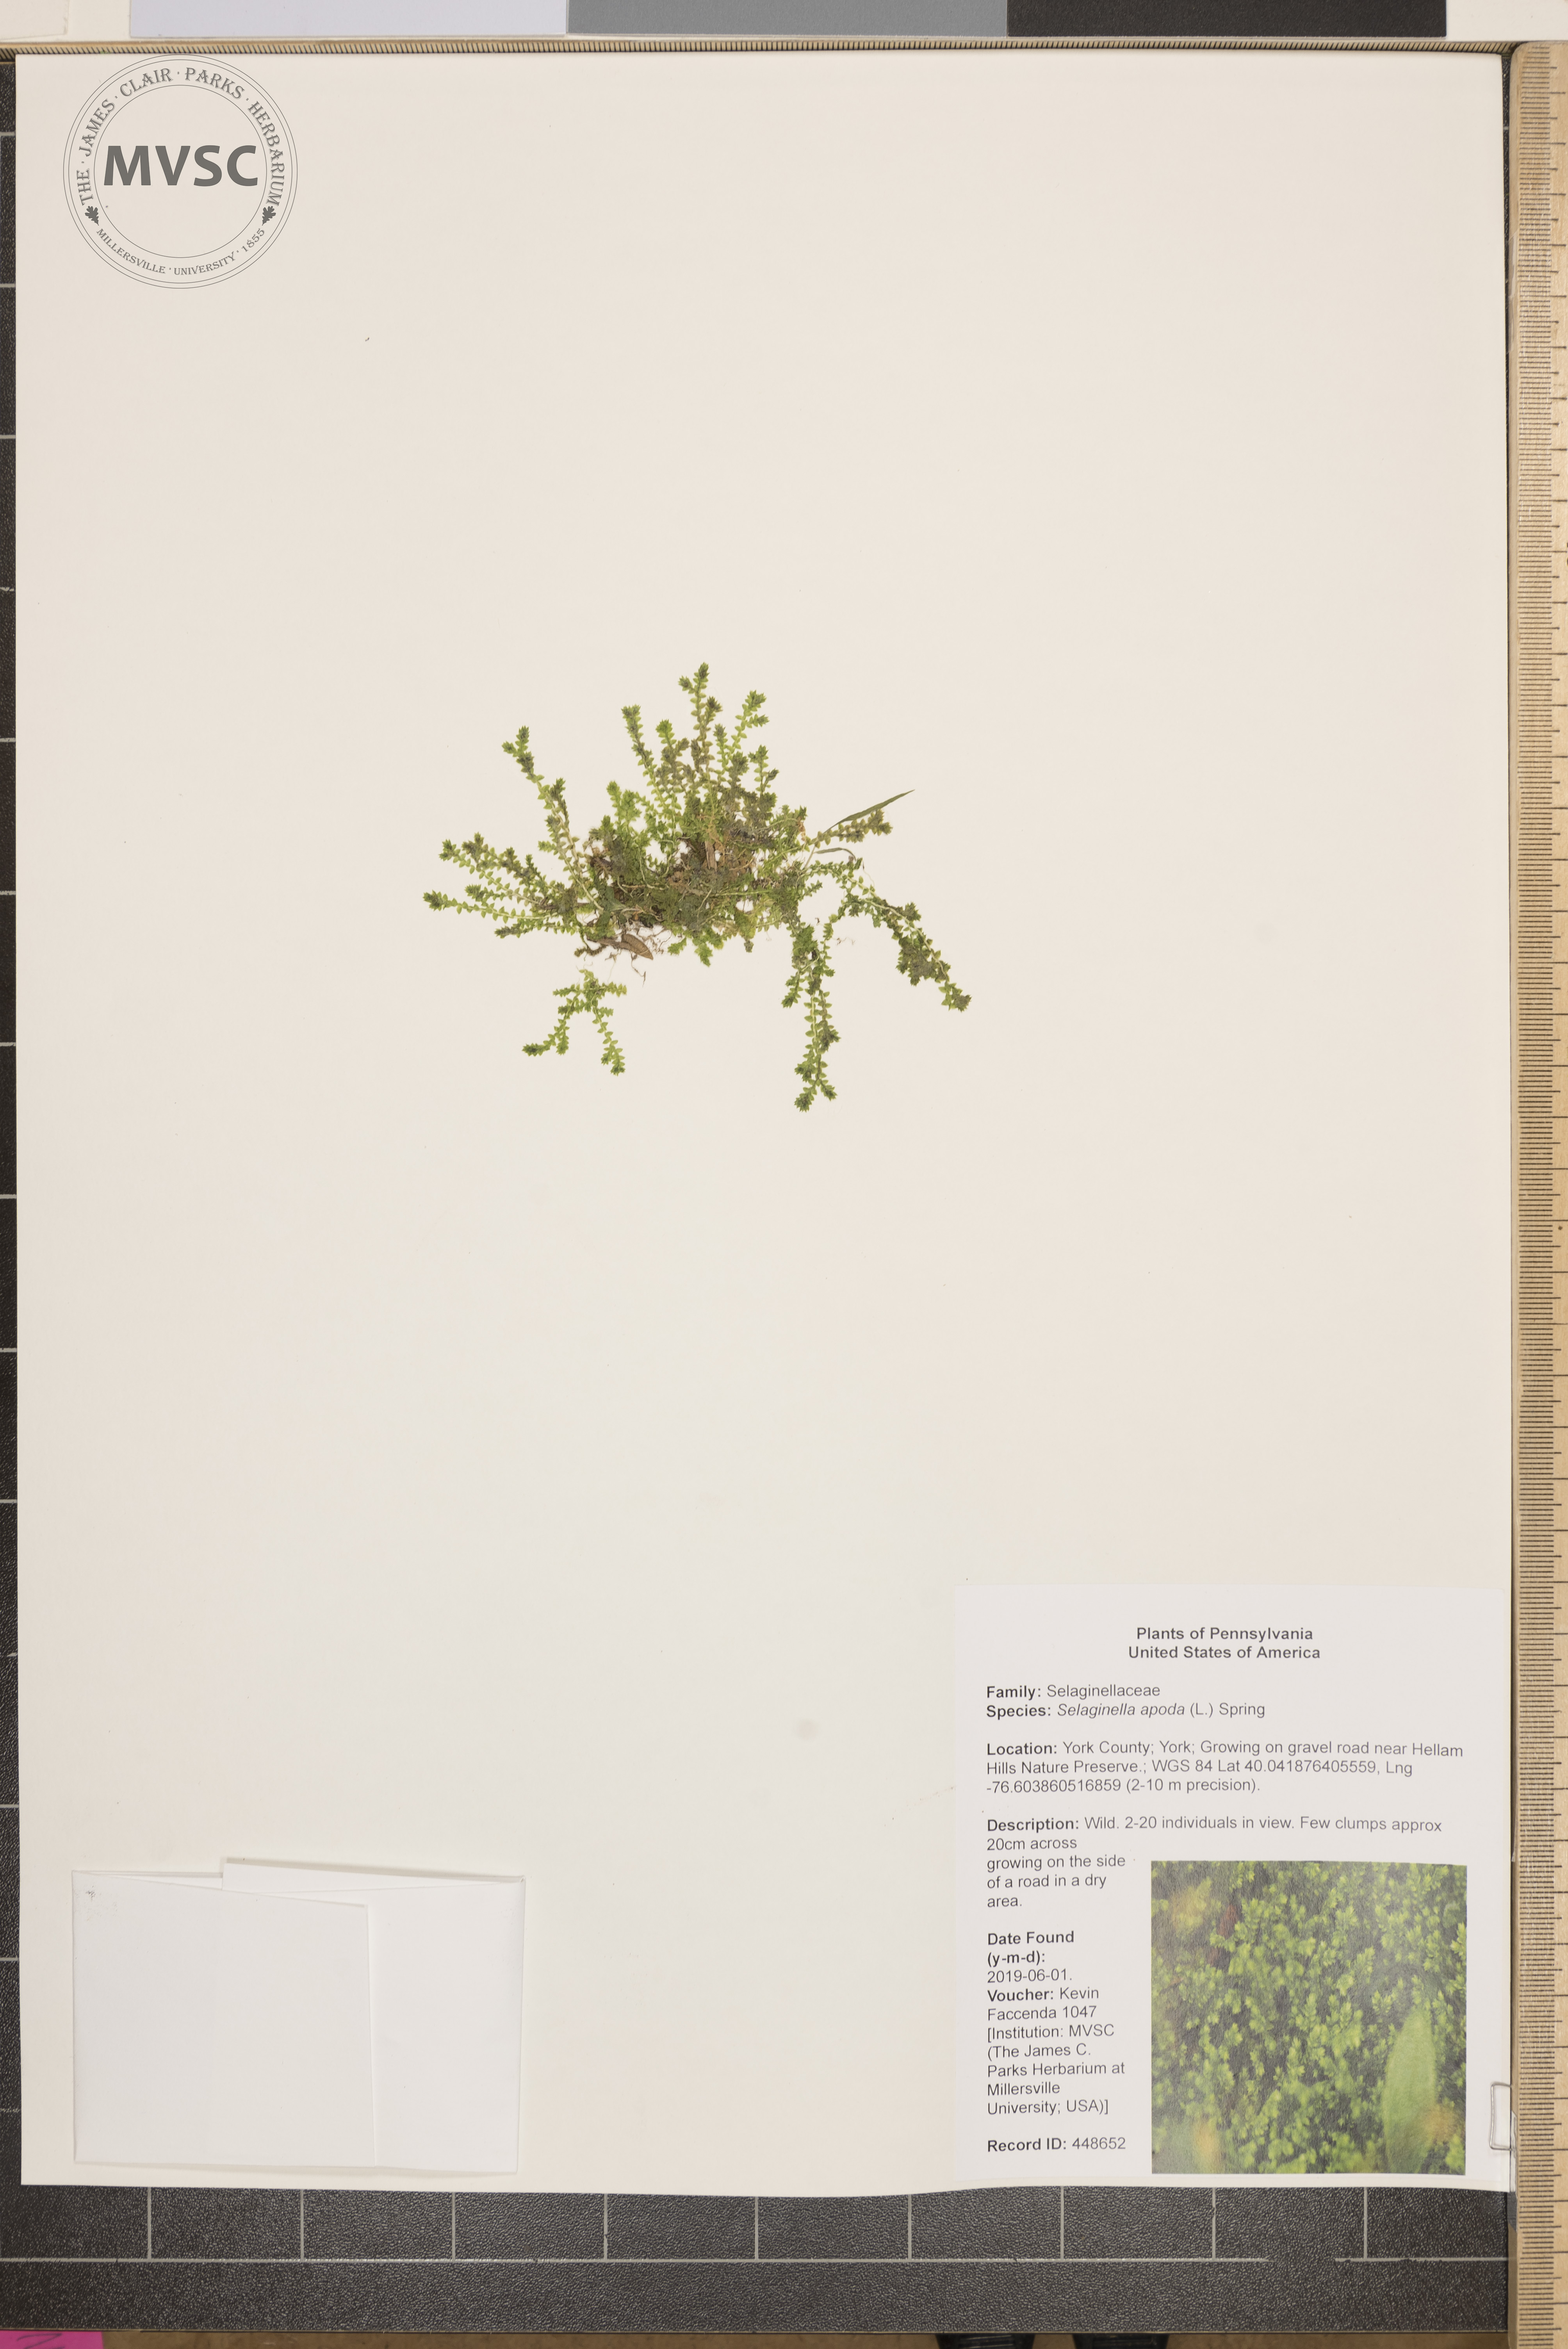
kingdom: Plantae
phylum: Tracheophyta
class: Lycopodiopsida
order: Selaginellales
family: Selaginellaceae
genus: Selaginella
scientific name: Selaginella apoda
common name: Creeping spikemoss
